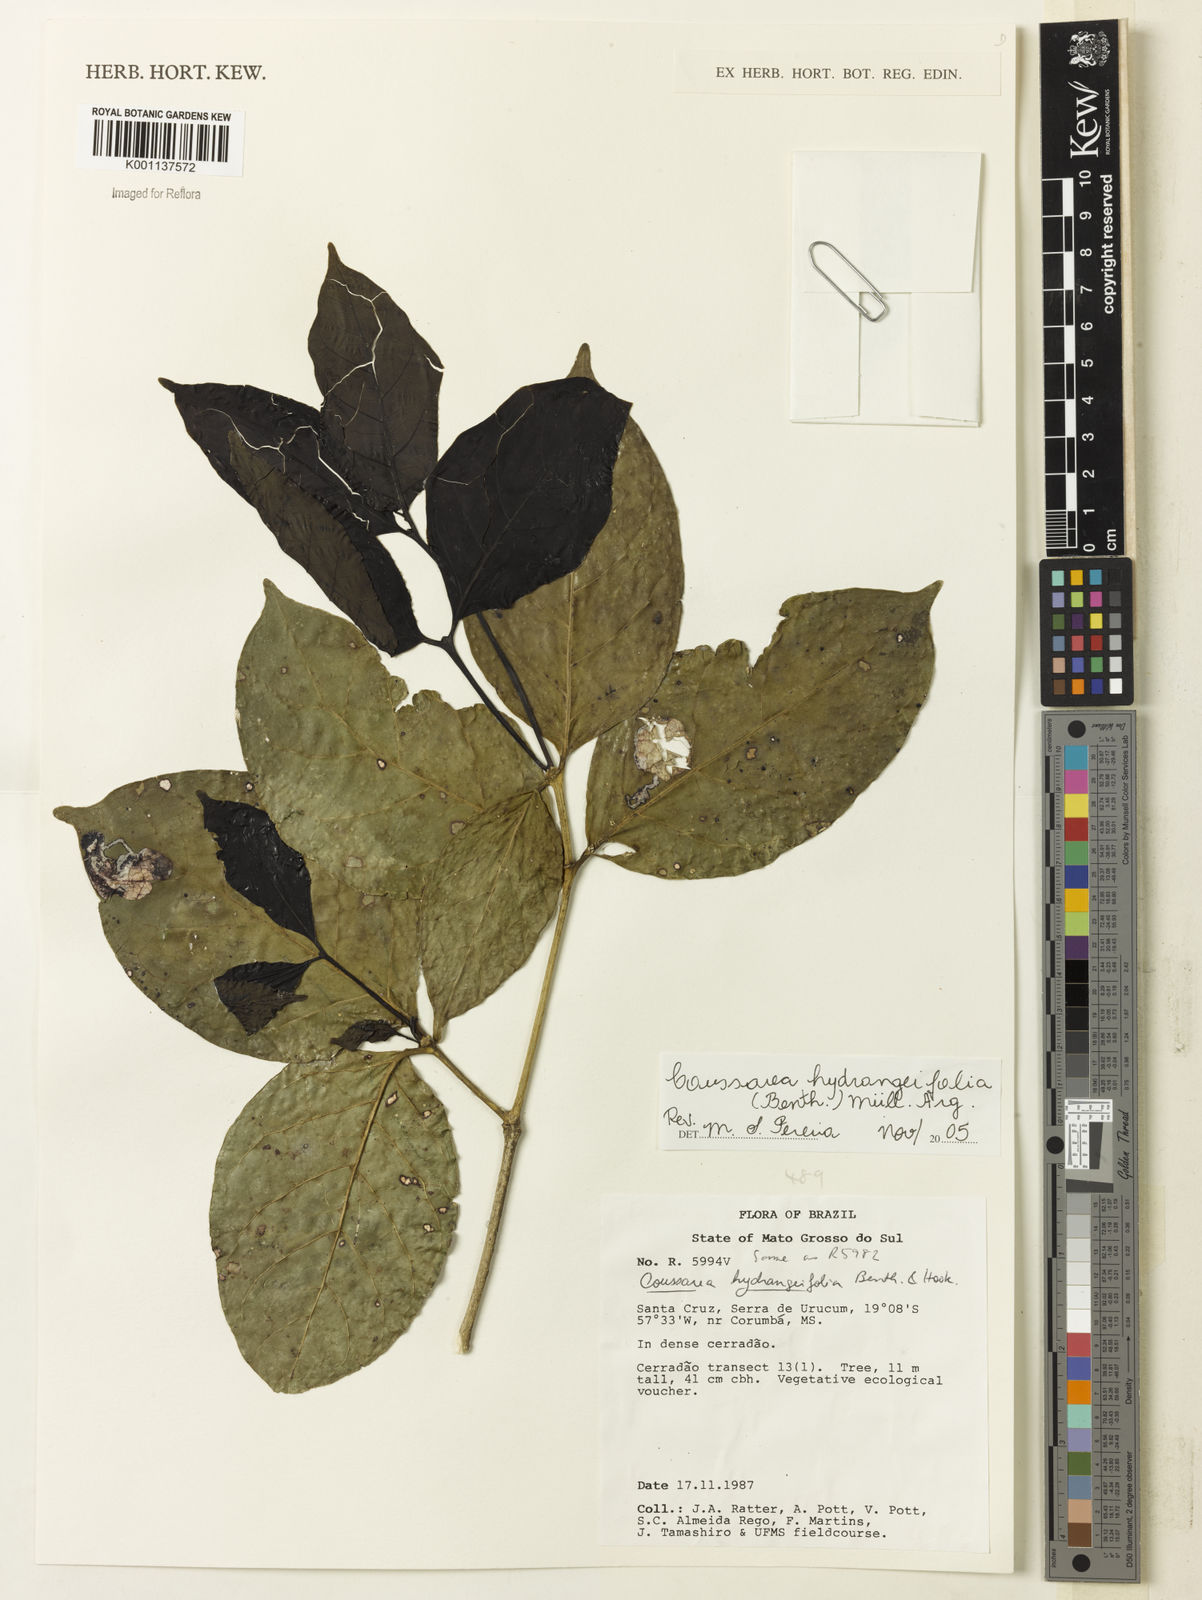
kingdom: Plantae
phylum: Tracheophyta
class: Magnoliopsida
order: Gentianales
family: Rubiaceae
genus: Coussarea
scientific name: Coussarea
